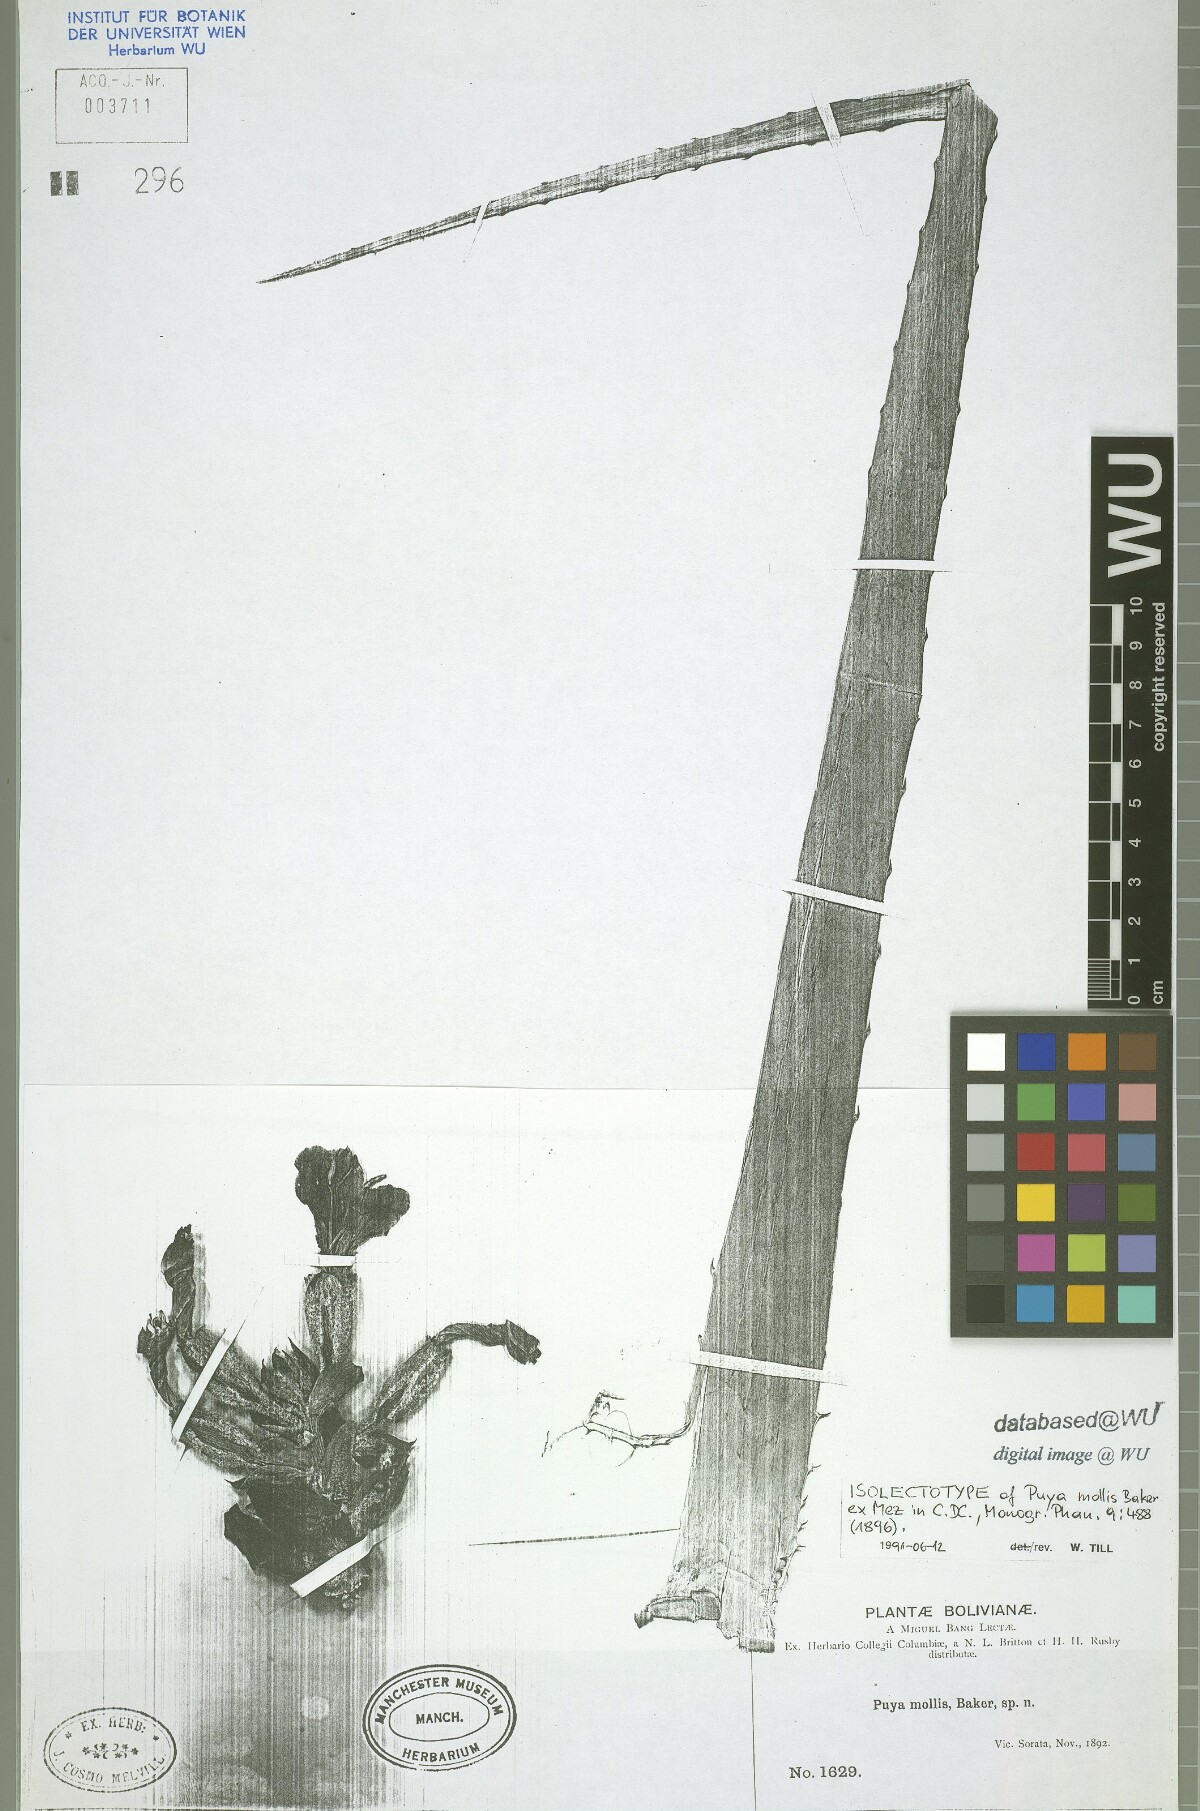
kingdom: Plantae
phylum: Tracheophyta
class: Liliopsida
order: Poales
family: Bromeliaceae
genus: Puya
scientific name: Puya mollis
